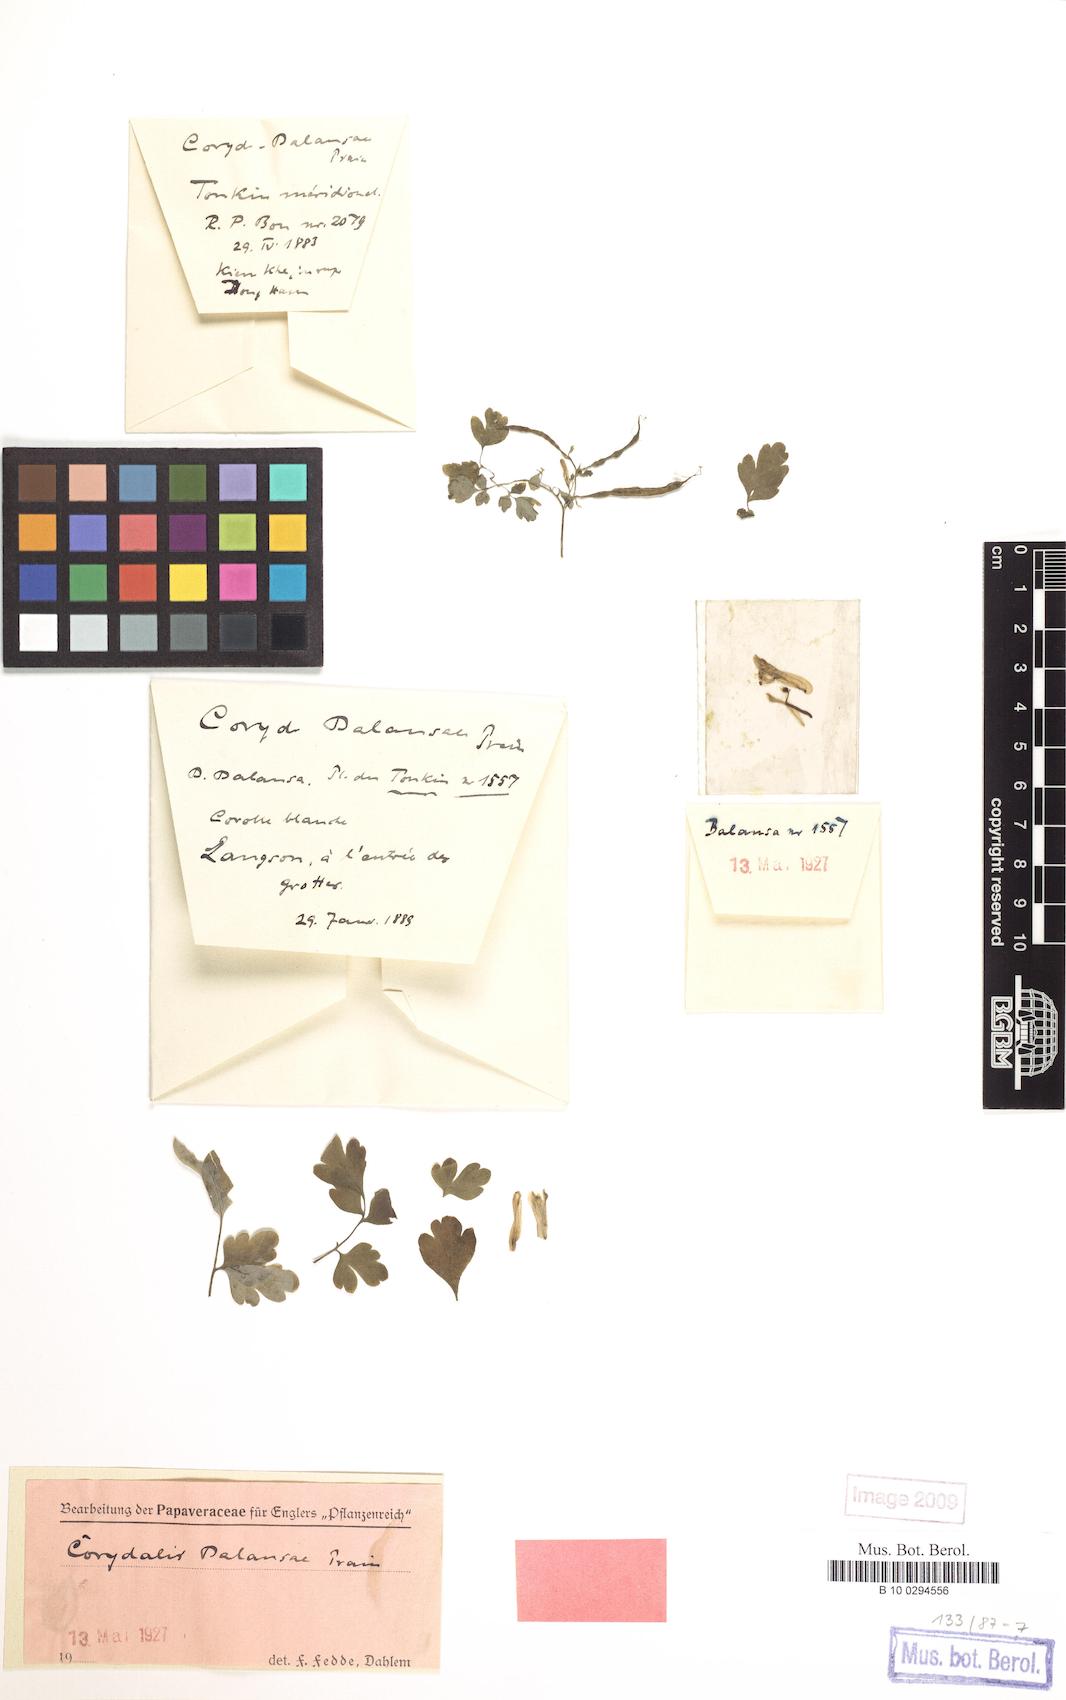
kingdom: Plantae
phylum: Tracheophyta
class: Magnoliopsida
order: Ranunculales
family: Papaveraceae
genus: Corydalis
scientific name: Corydalis balansae
